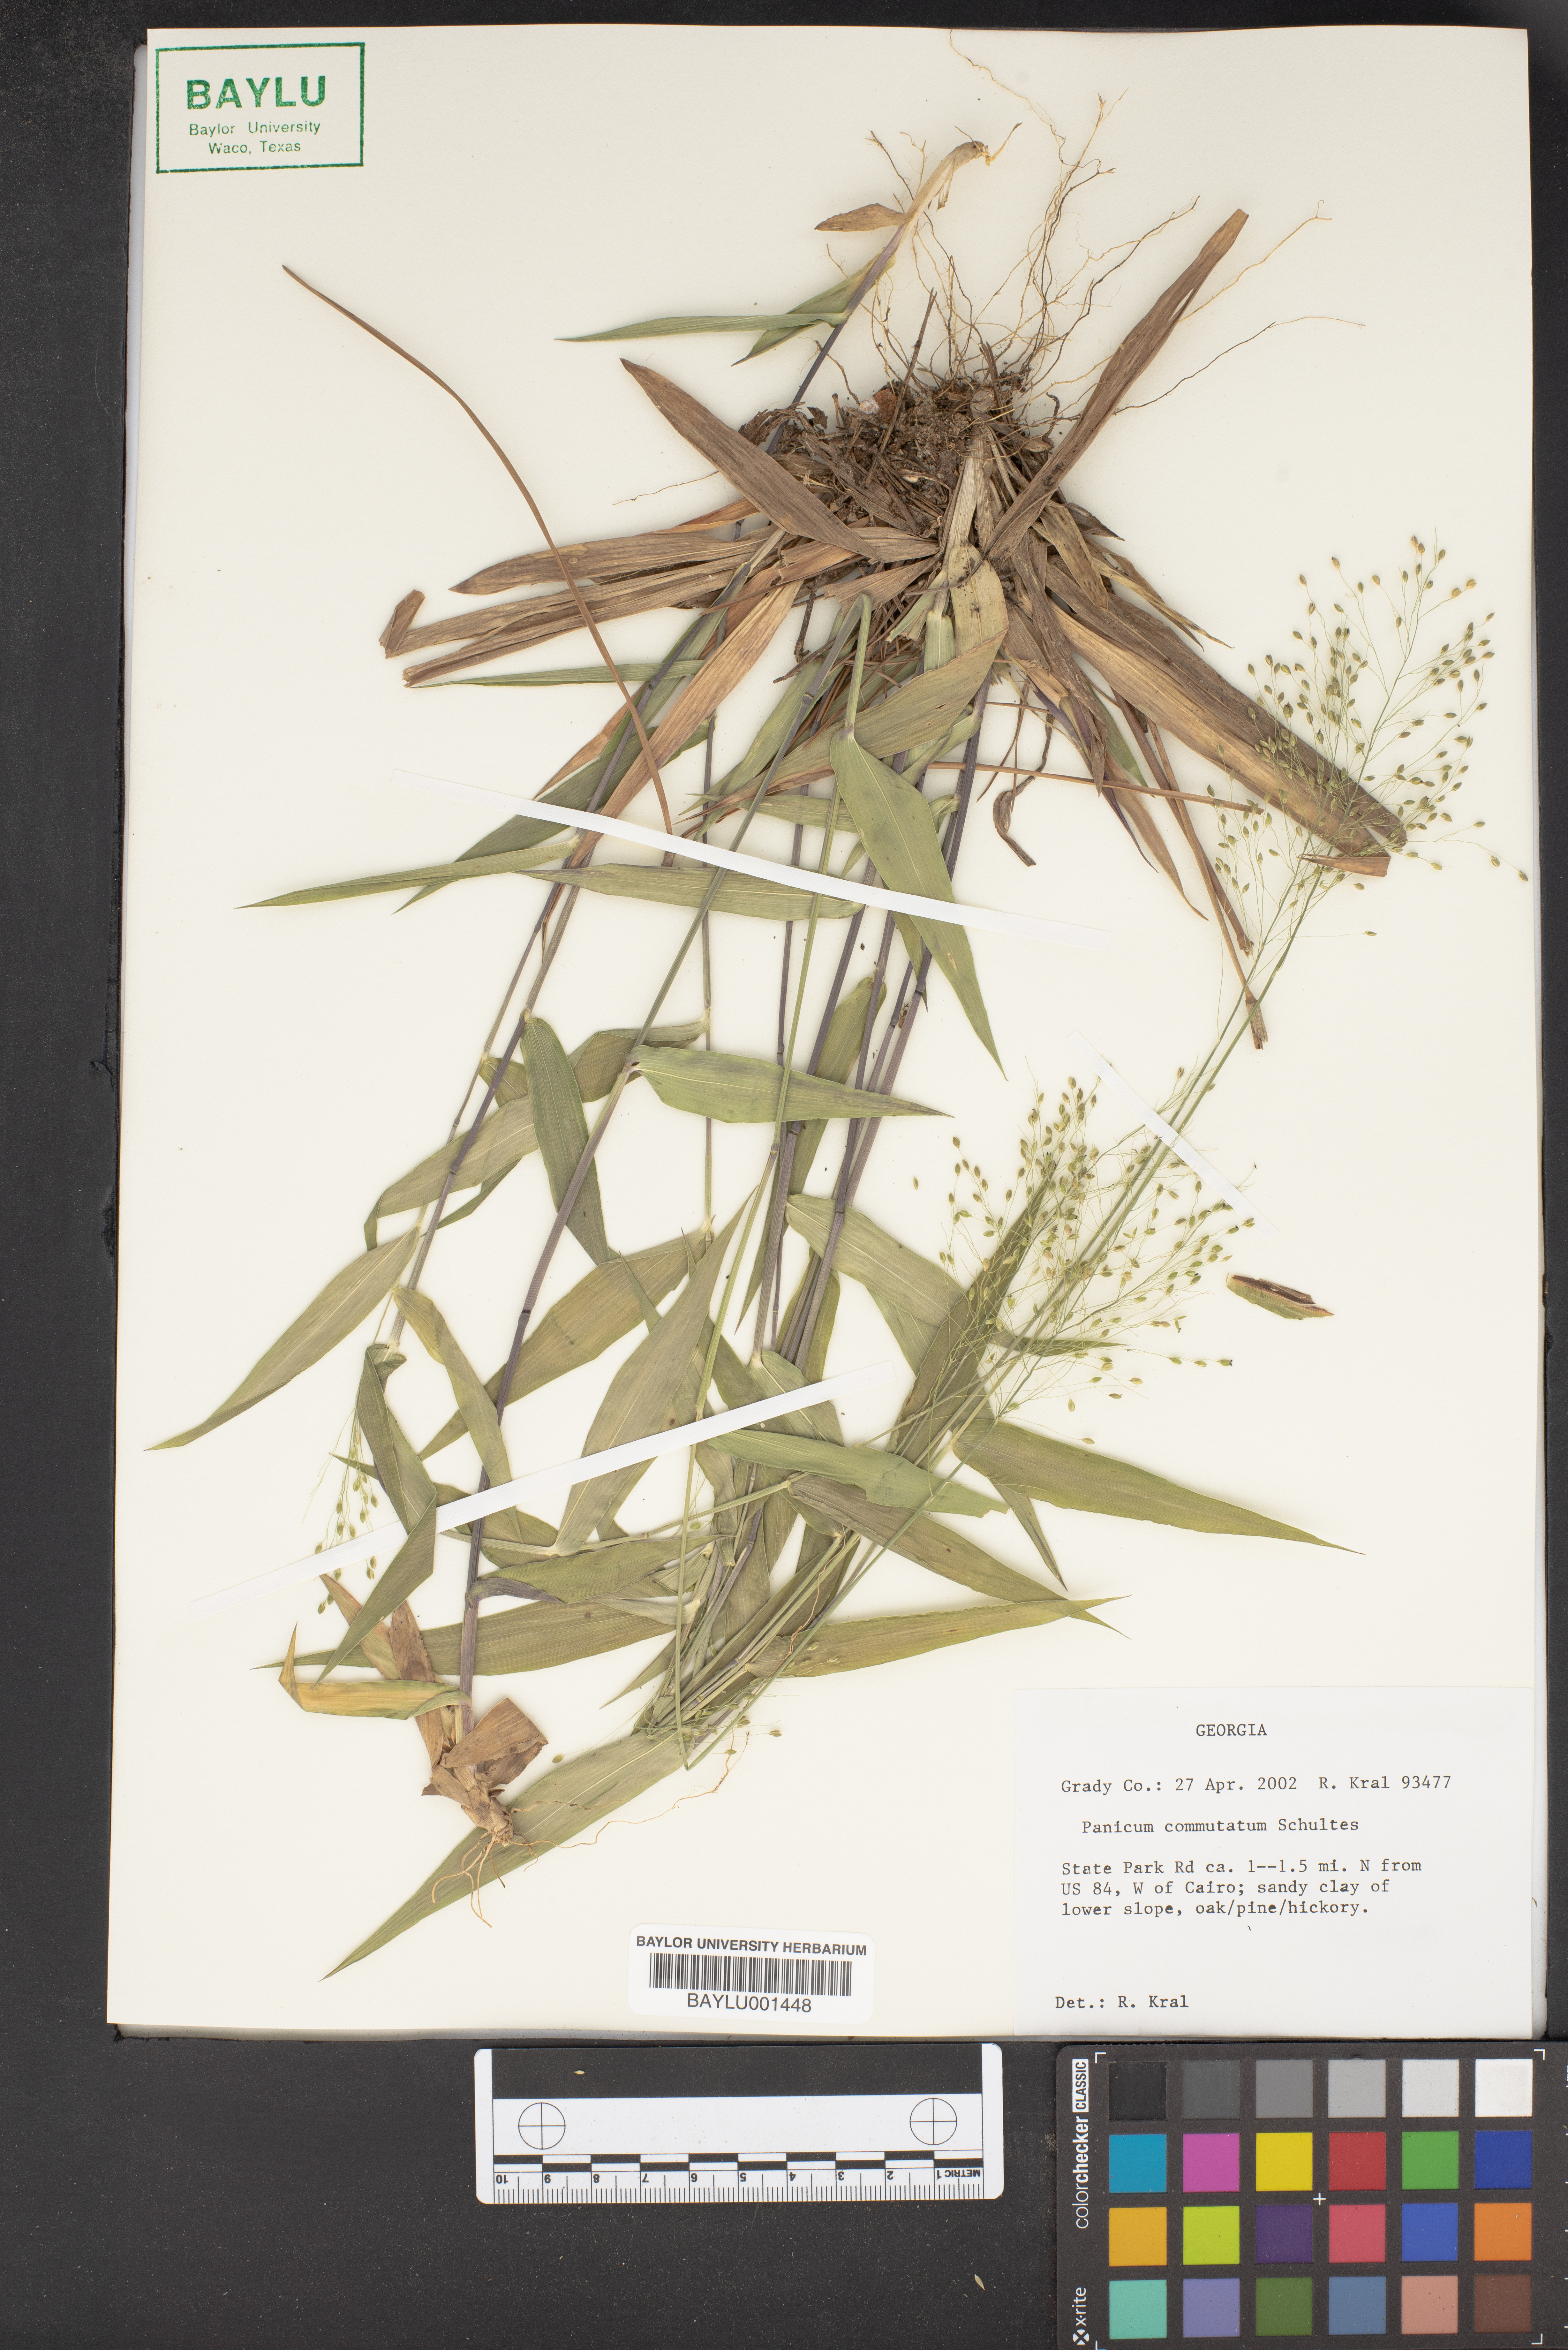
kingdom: Plantae
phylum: Tracheophyta
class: Liliopsida
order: Poales
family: Poaceae
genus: Dichanthelium
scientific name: Dichanthelium commutatum
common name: Variable witchgrass
